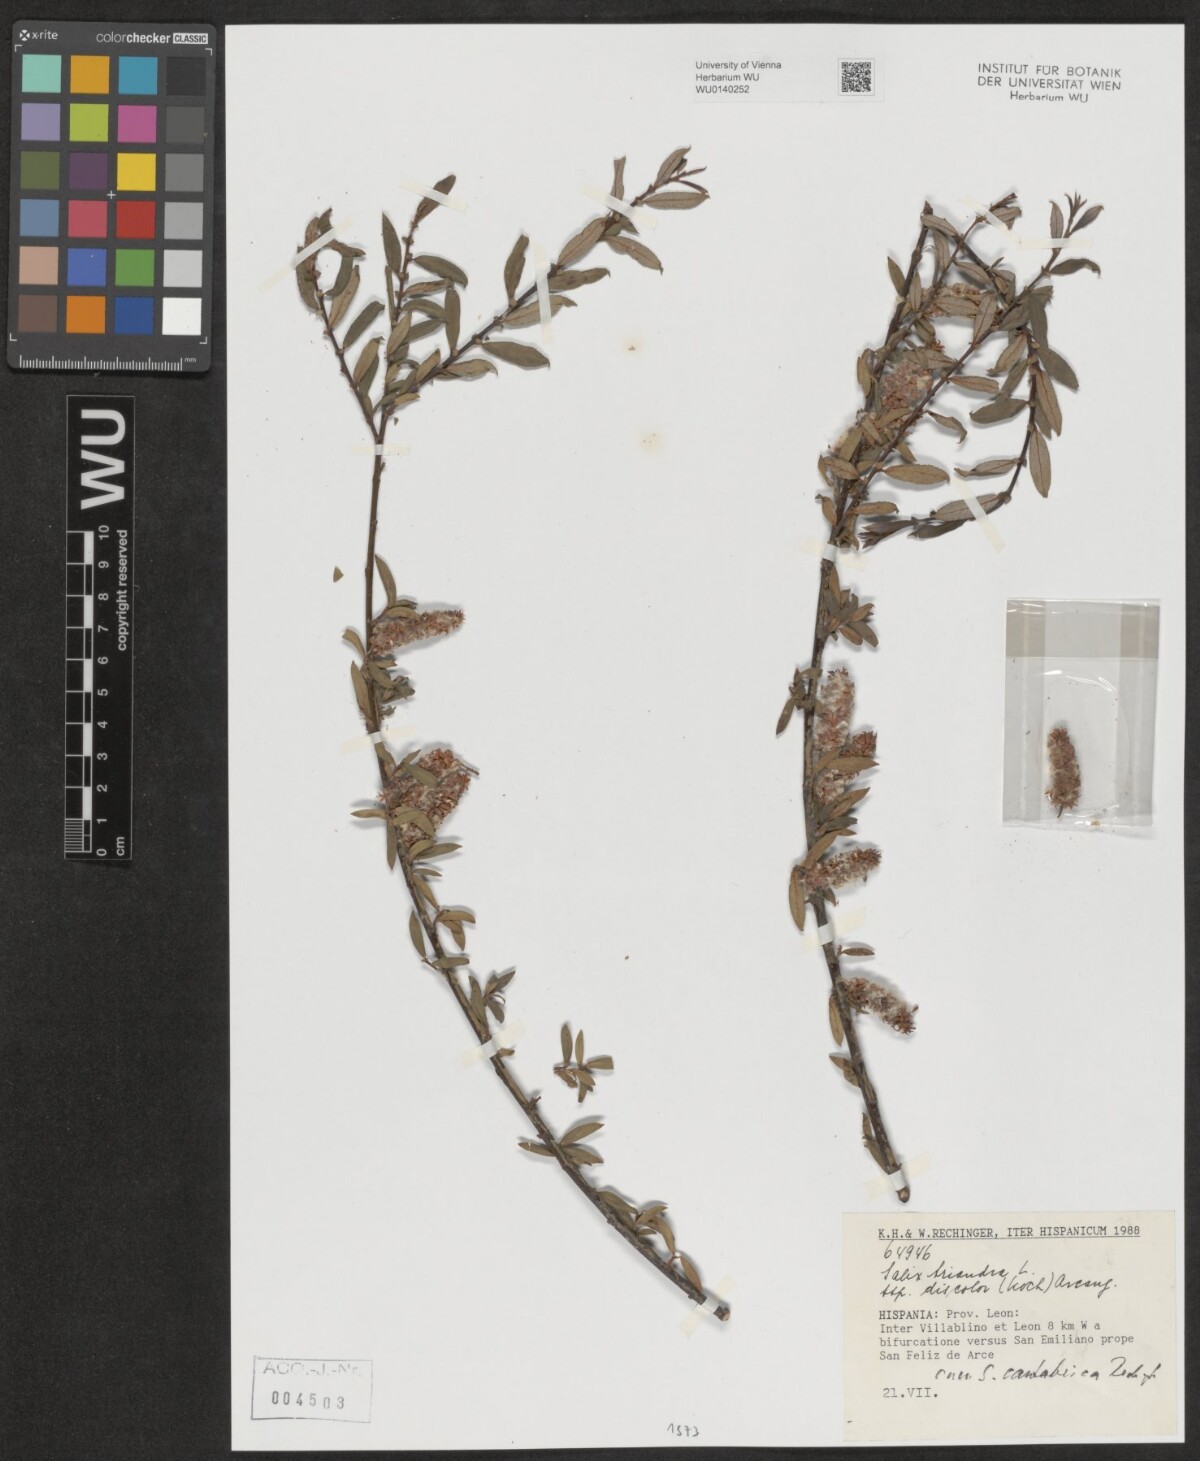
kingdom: Plantae
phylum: Tracheophyta
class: Magnoliopsida
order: Malpighiales
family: Salicaceae
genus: Salix
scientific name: Salix triandra
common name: Almond willow
